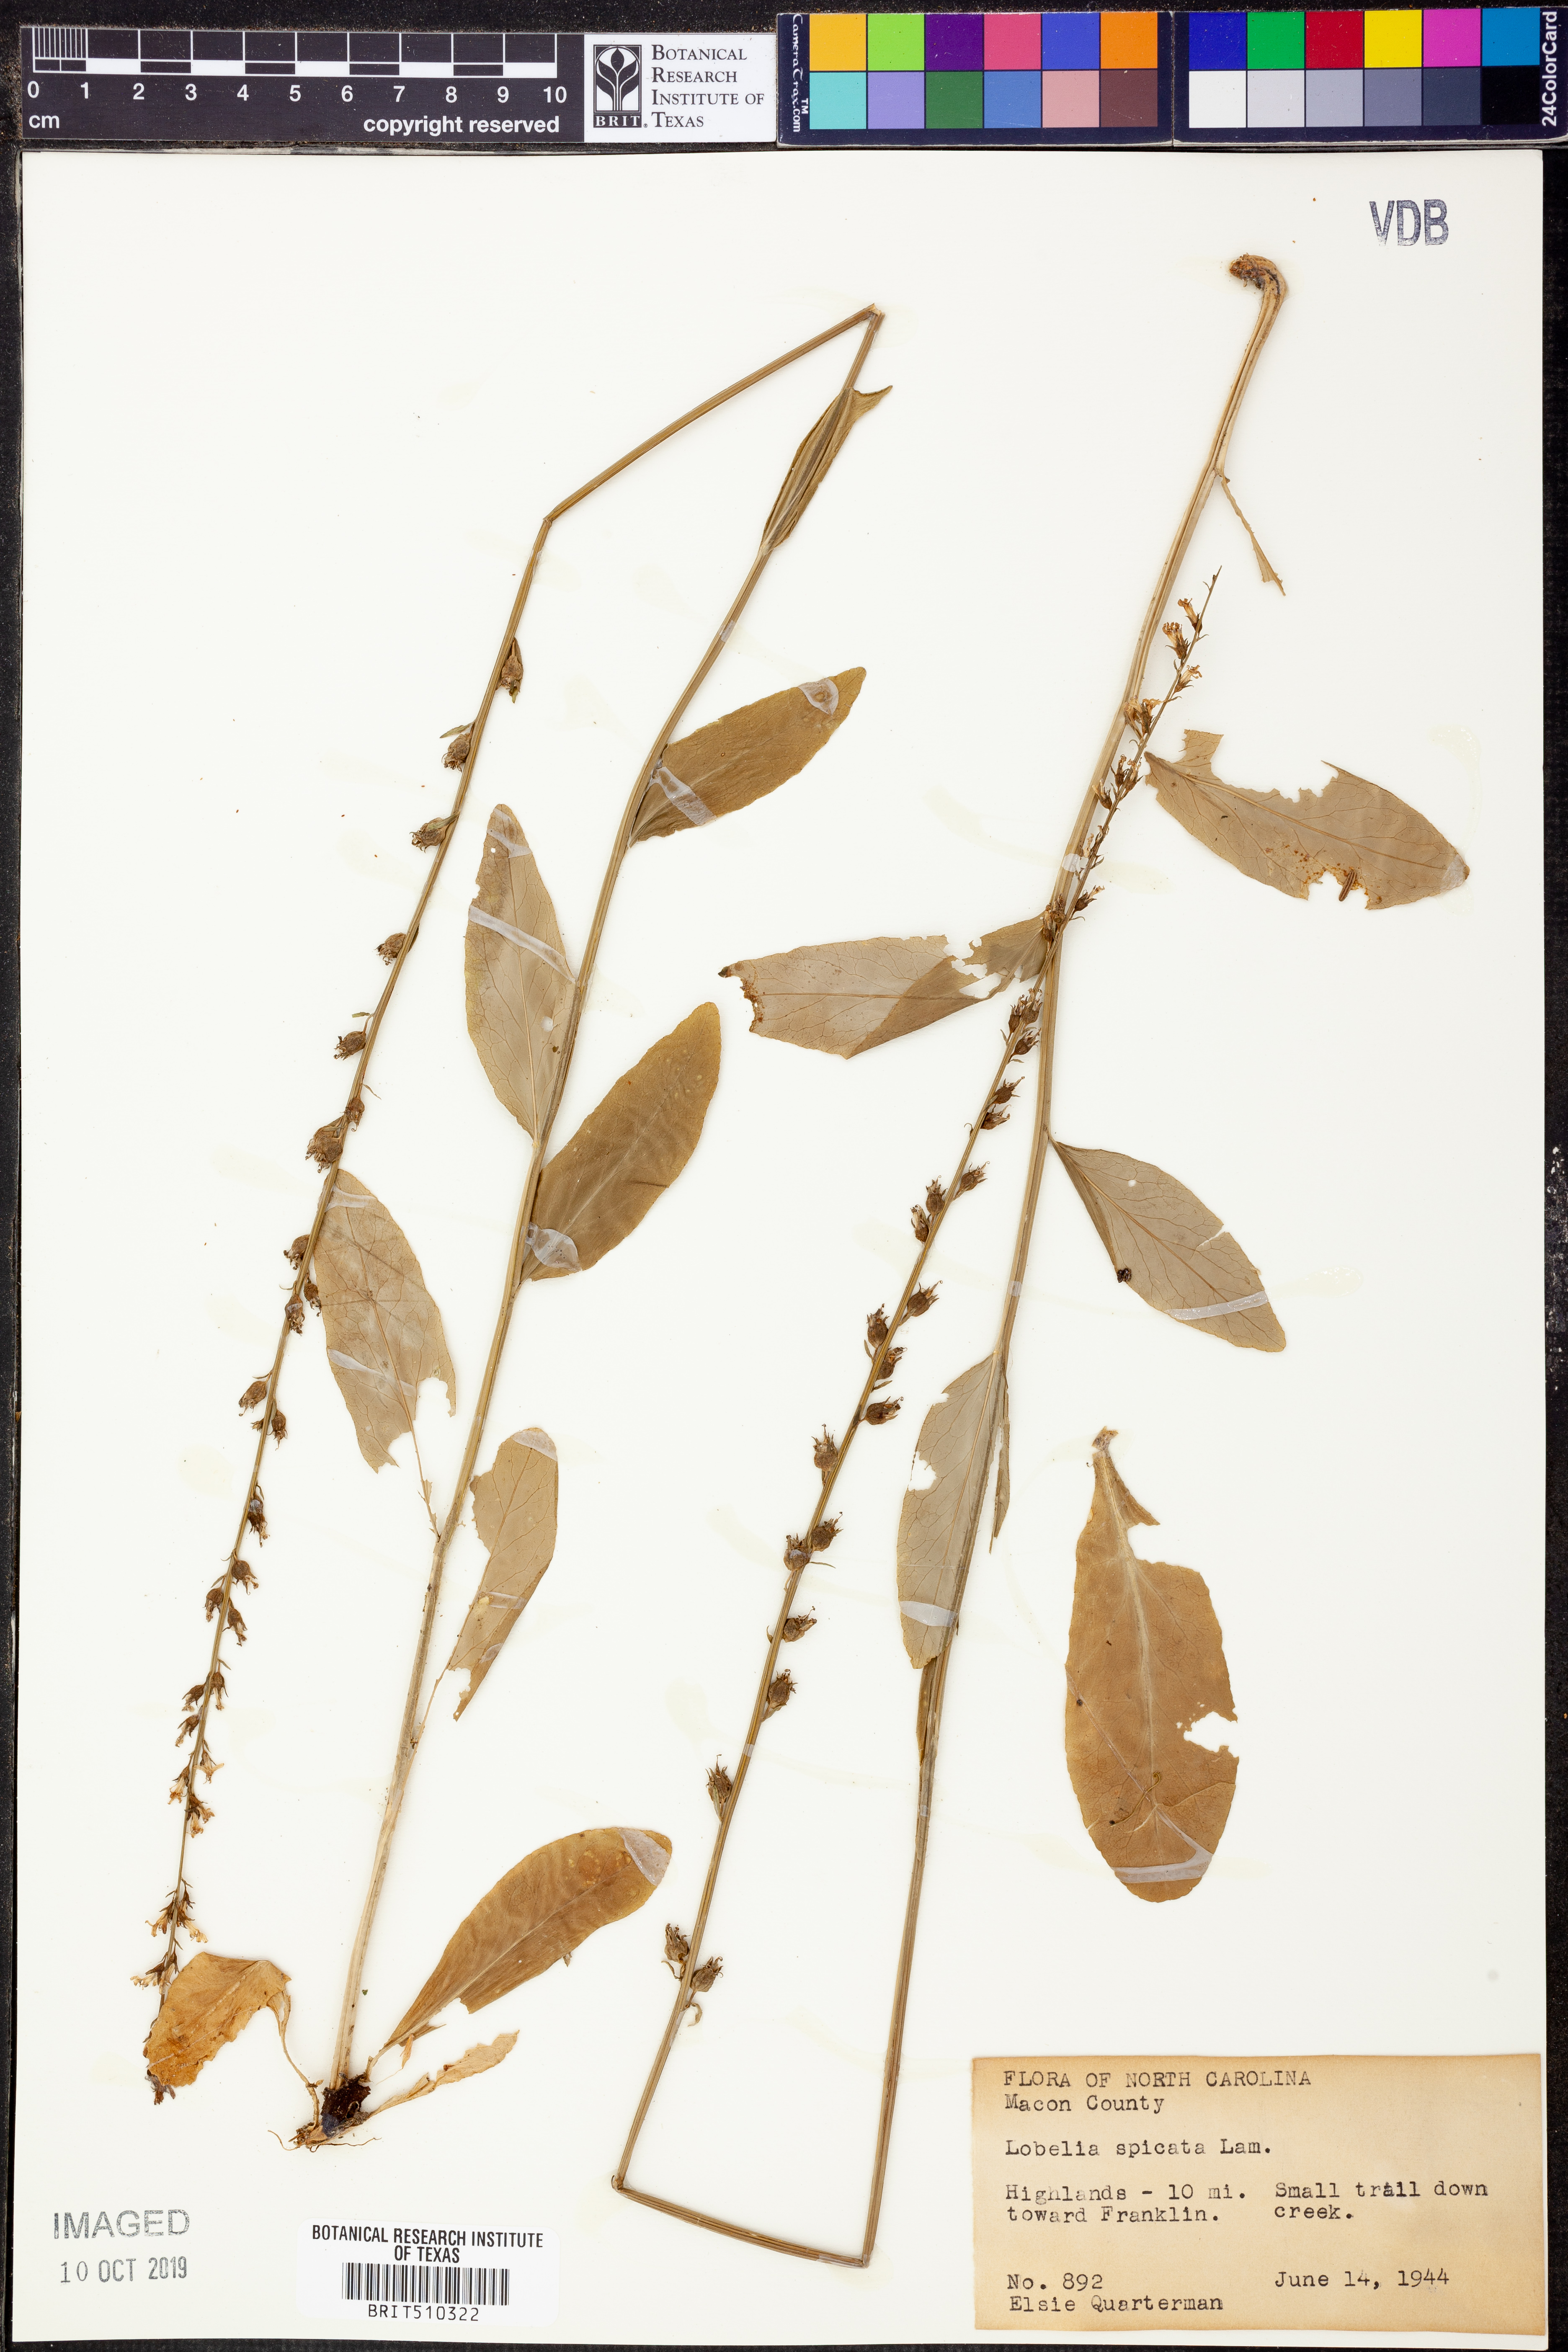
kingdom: Plantae
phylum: Tracheophyta
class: Magnoliopsida
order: Asterales
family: Campanulaceae
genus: Lobelia
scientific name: Lobelia spicata
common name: Pale-spike lobelia
